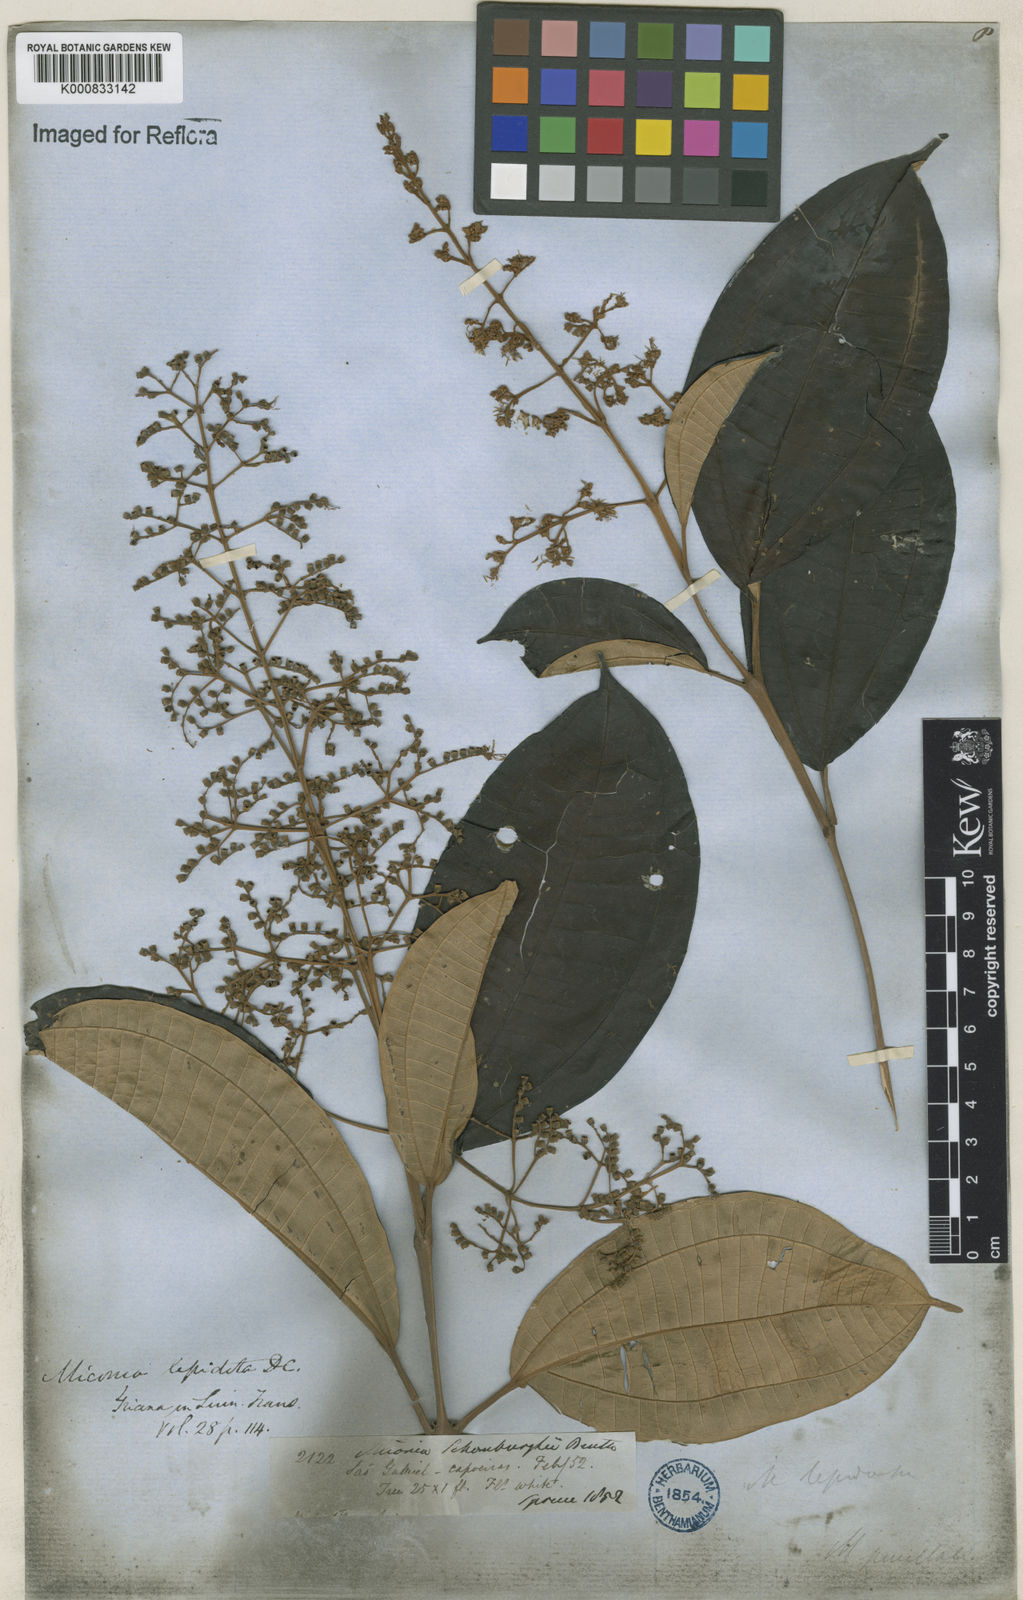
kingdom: Plantae
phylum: Tracheophyta
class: Magnoliopsida
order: Myrtales
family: Melastomataceae
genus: Miconia
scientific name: Miconia lepidota
